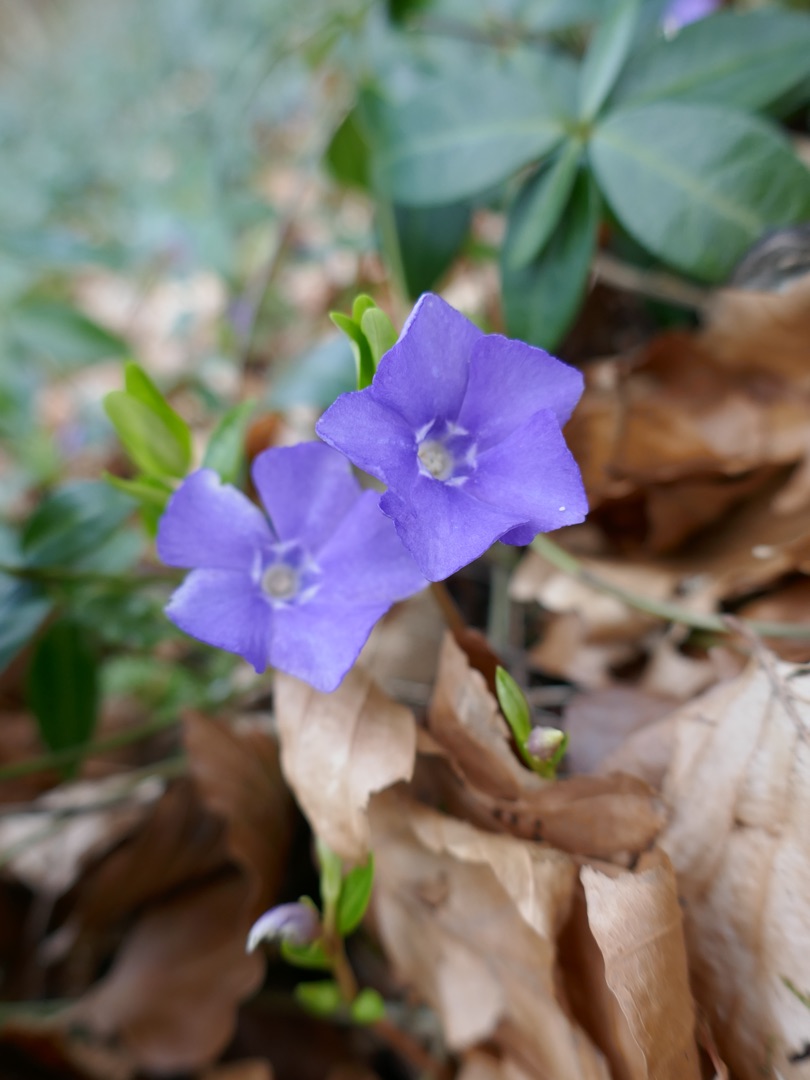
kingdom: Plantae
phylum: Tracheophyta
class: Magnoliopsida
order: Gentianales
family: Apocynaceae
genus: Vinca
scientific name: Vinca minor
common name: Liden singrøn
